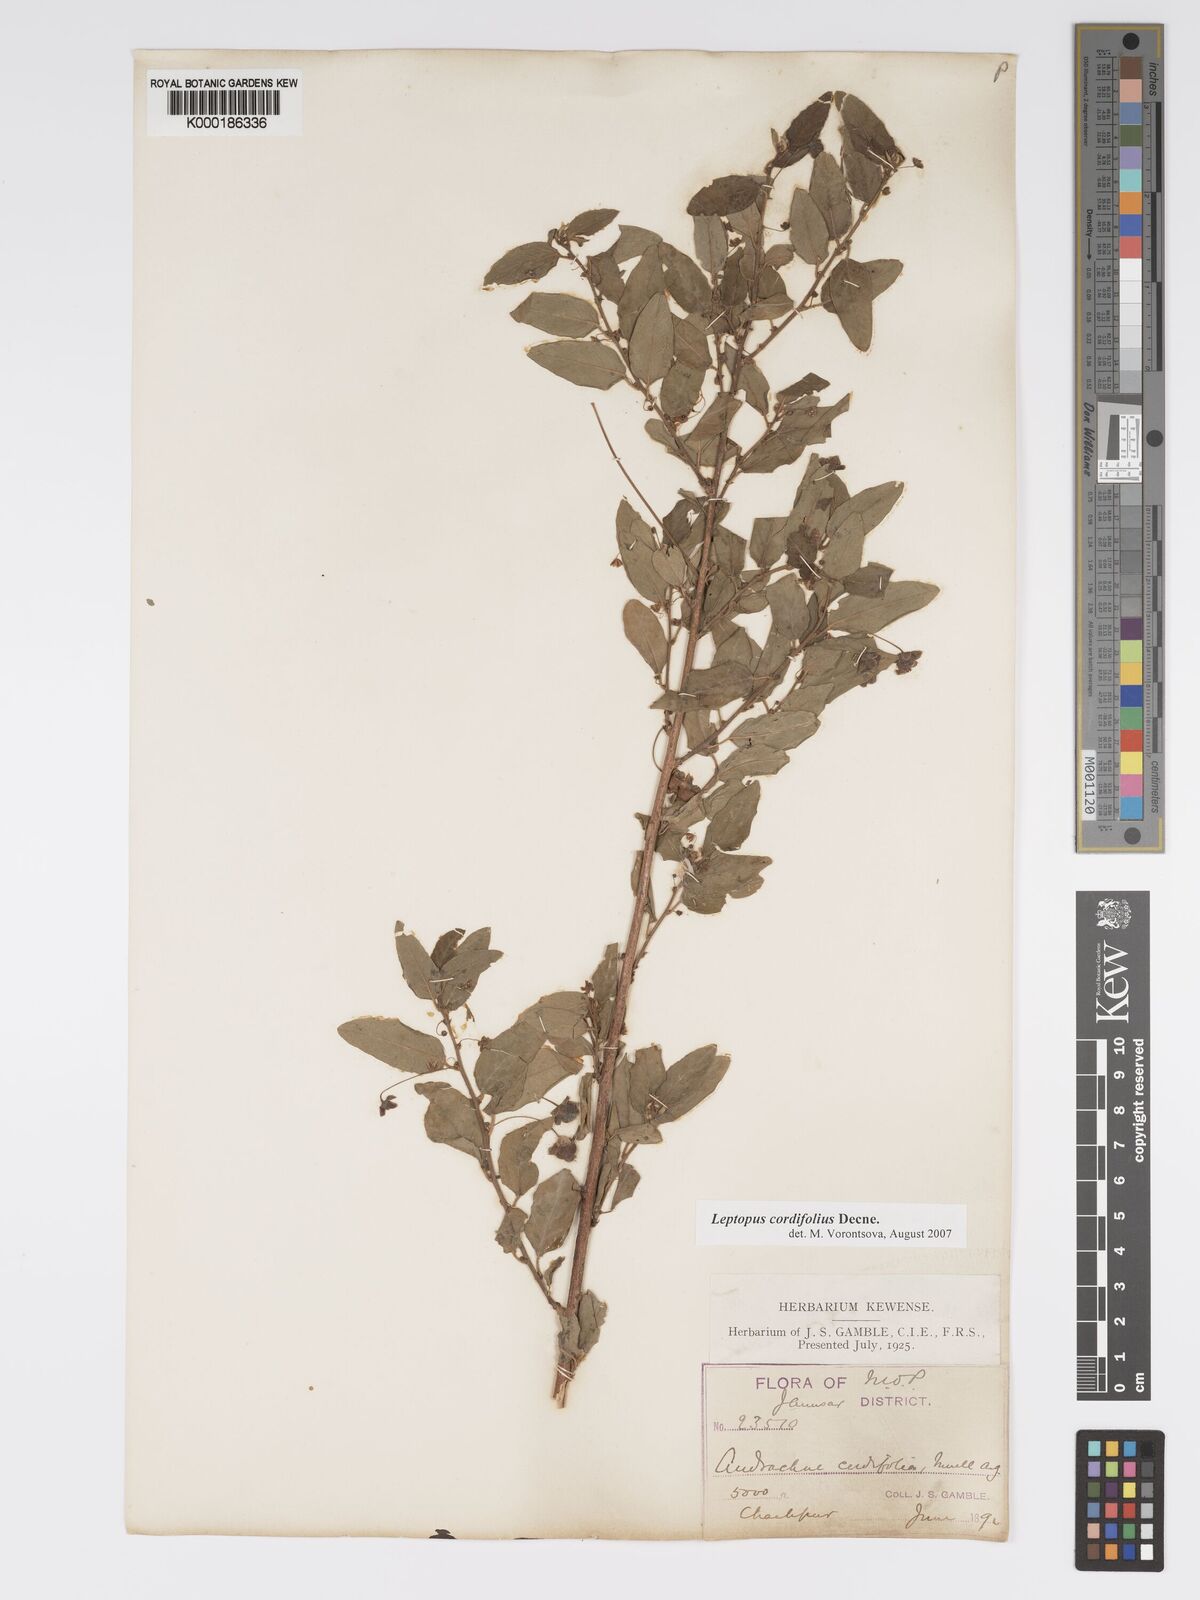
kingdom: Plantae
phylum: Tracheophyta
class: Magnoliopsida
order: Malpighiales
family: Phyllanthaceae
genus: Leptopus
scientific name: Leptopus cordifolius
